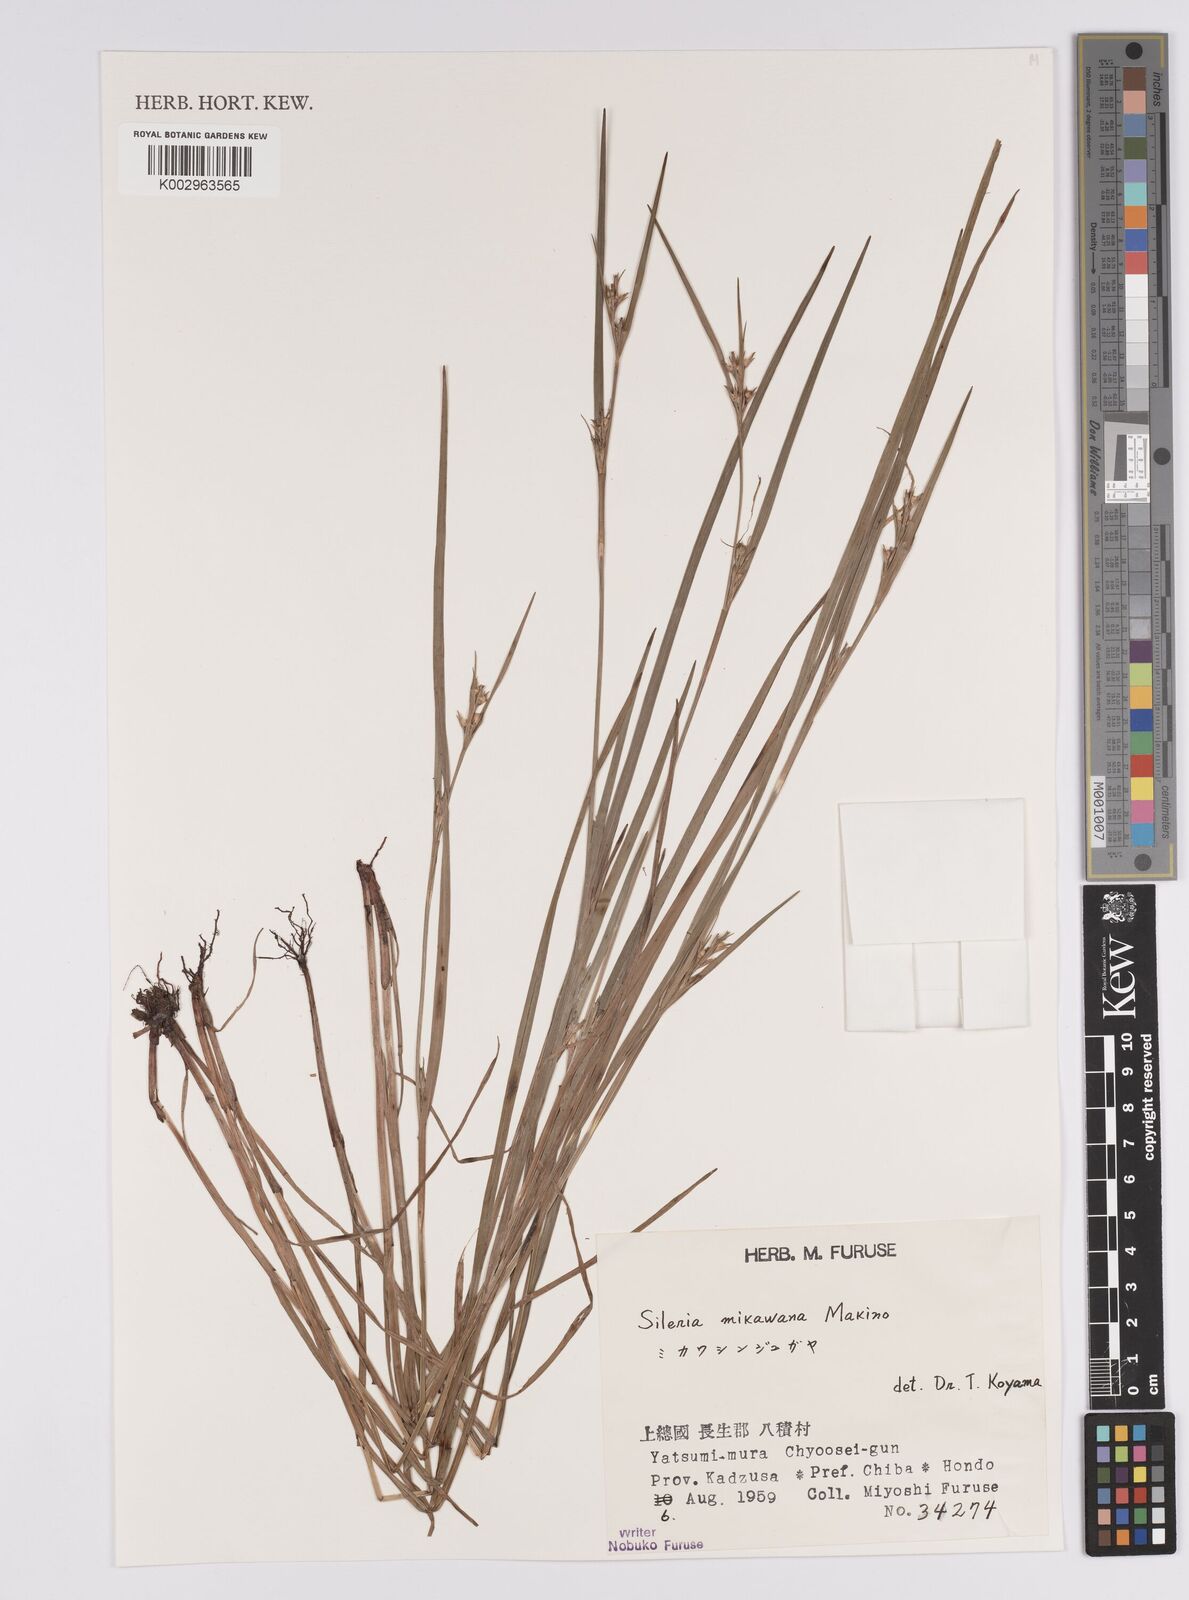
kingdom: Plantae
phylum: Tracheophyta
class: Liliopsida
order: Poales
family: Cyperaceae
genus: Scleria
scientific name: Scleria mikawana
